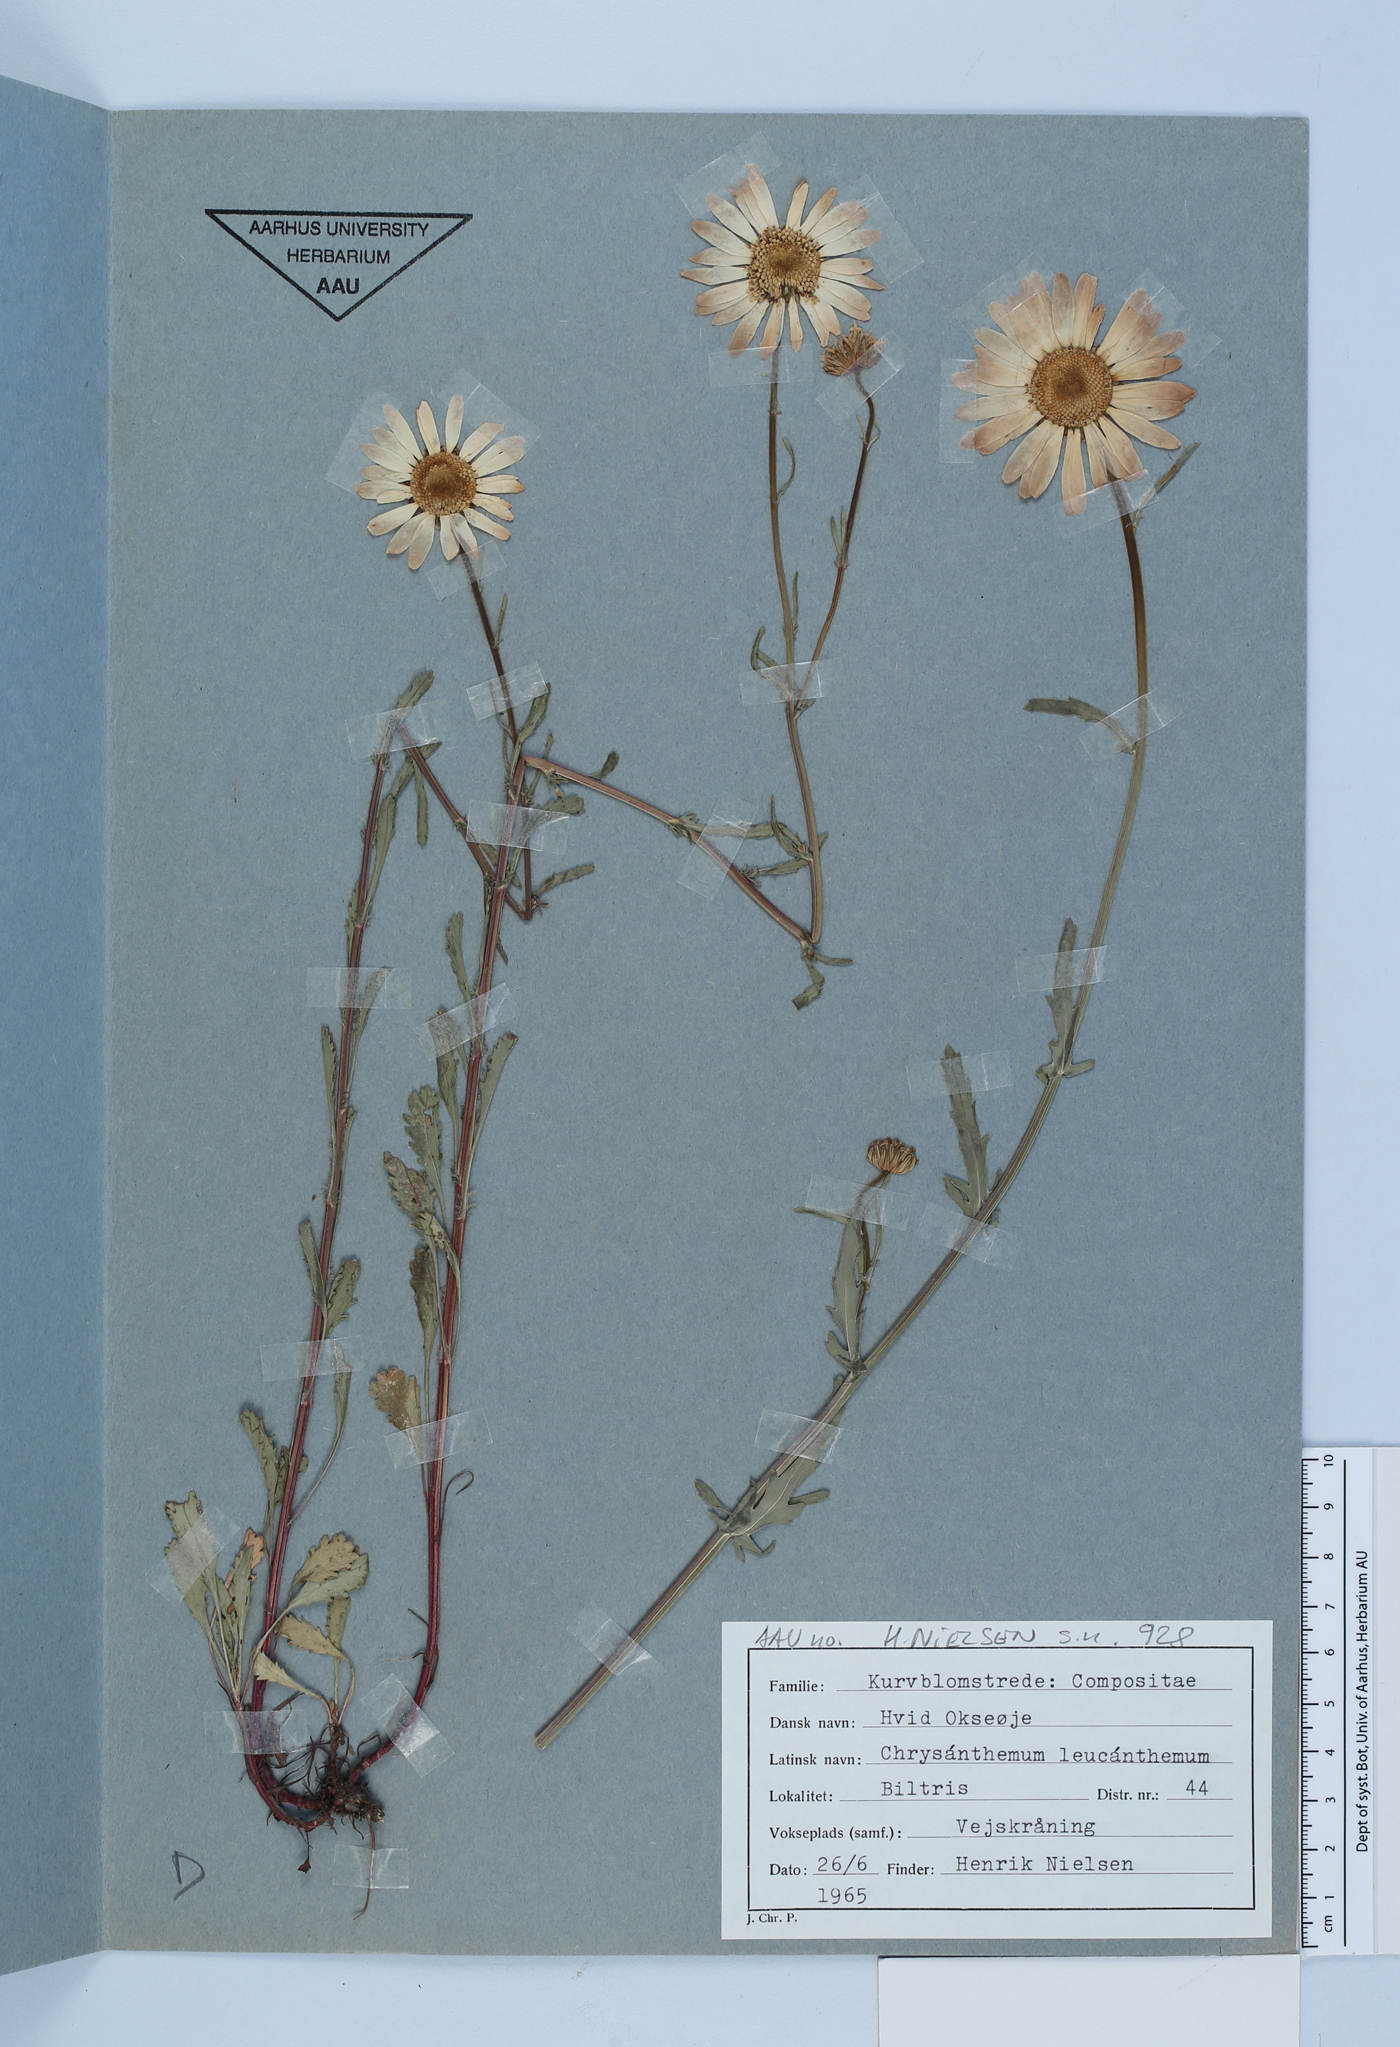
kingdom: Plantae
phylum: Tracheophyta
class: Magnoliopsida
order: Asterales
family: Asteraceae
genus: Leucanthemum
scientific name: Leucanthemum vulgare
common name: Oxeye daisy
